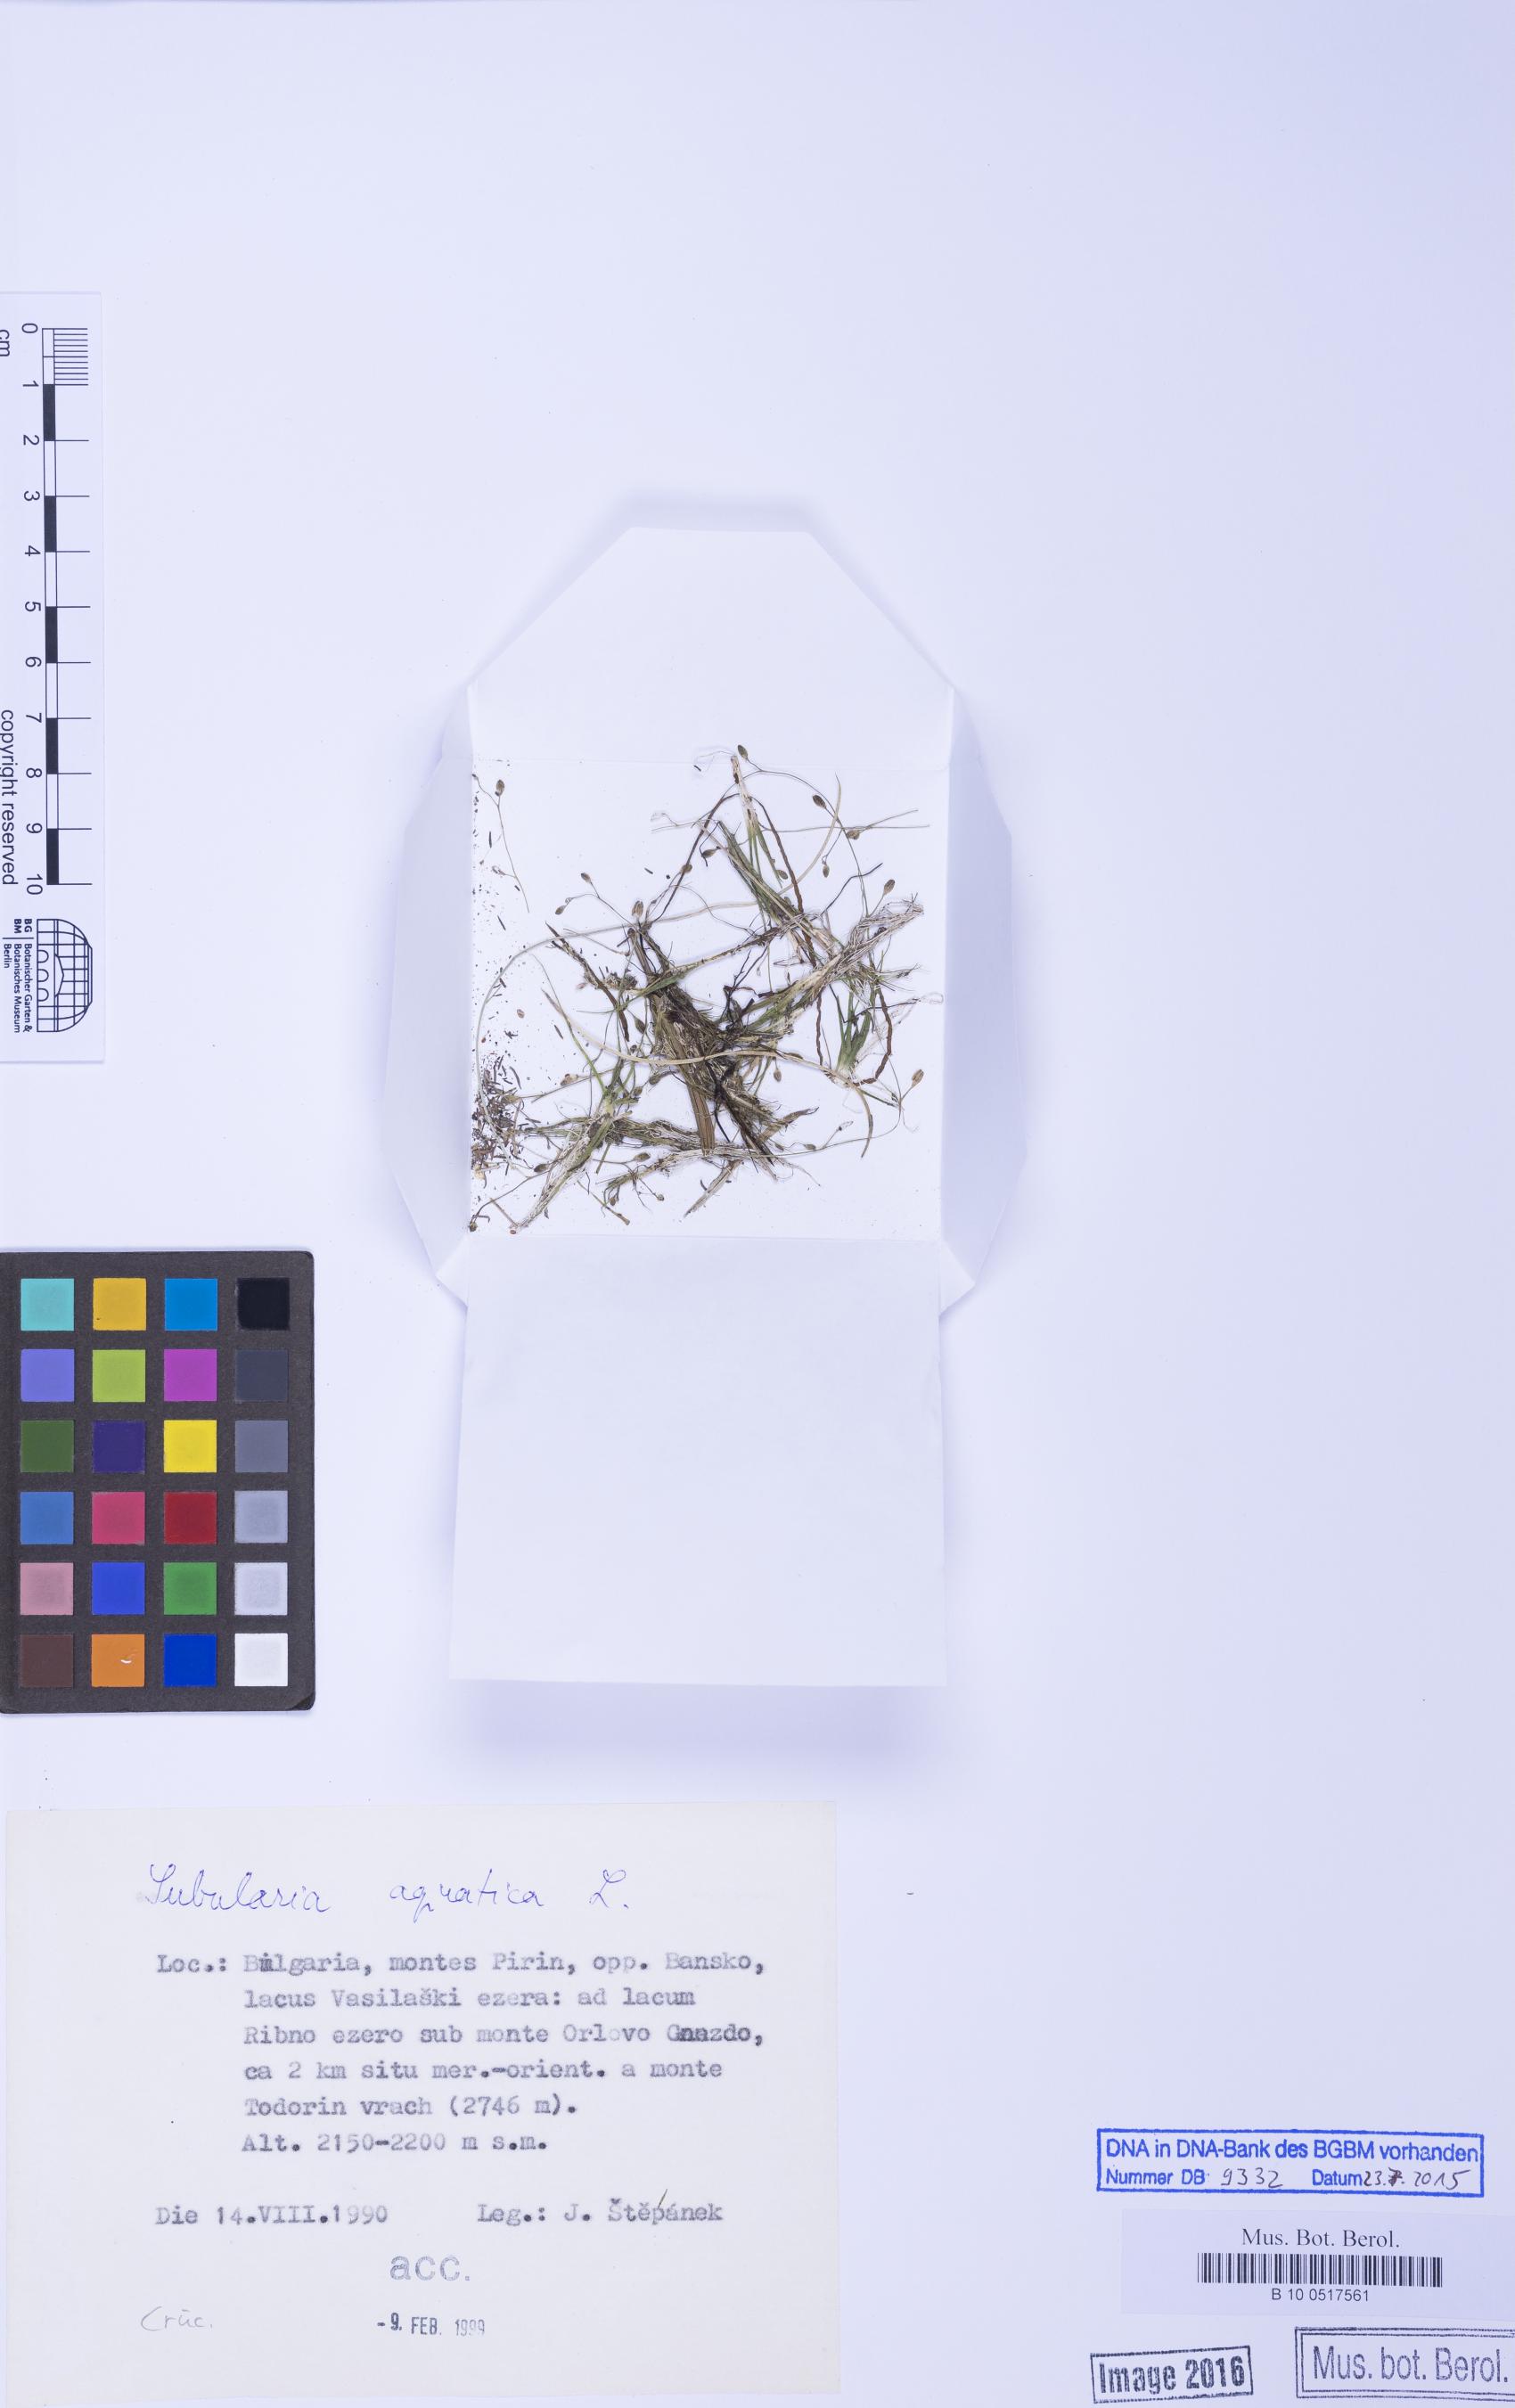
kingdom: Plantae
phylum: Tracheophyta
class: Magnoliopsida
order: Brassicales
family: Brassicaceae
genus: Subularia
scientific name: Subularia aquatica
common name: Awlwort
